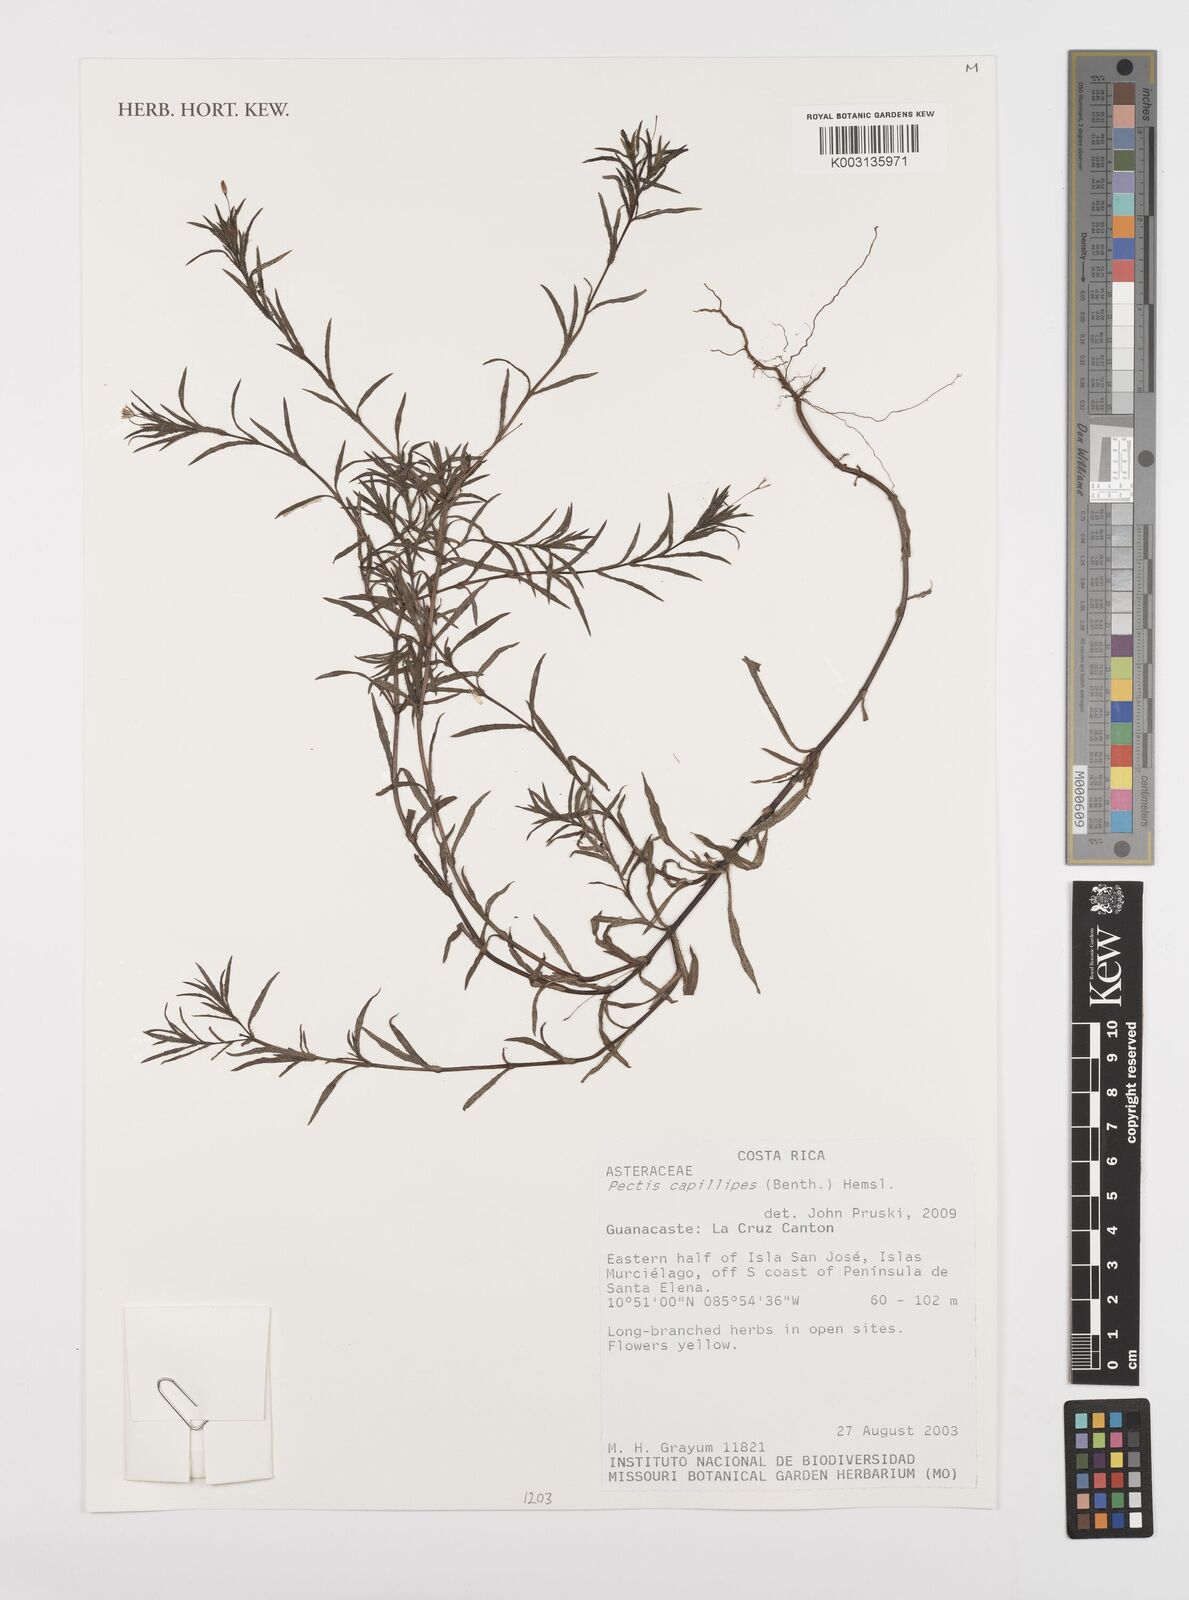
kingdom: Plantae
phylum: Tracheophyta
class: Magnoliopsida
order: Asterales
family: Asteraceae
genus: Pectis
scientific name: Pectis capillipes
